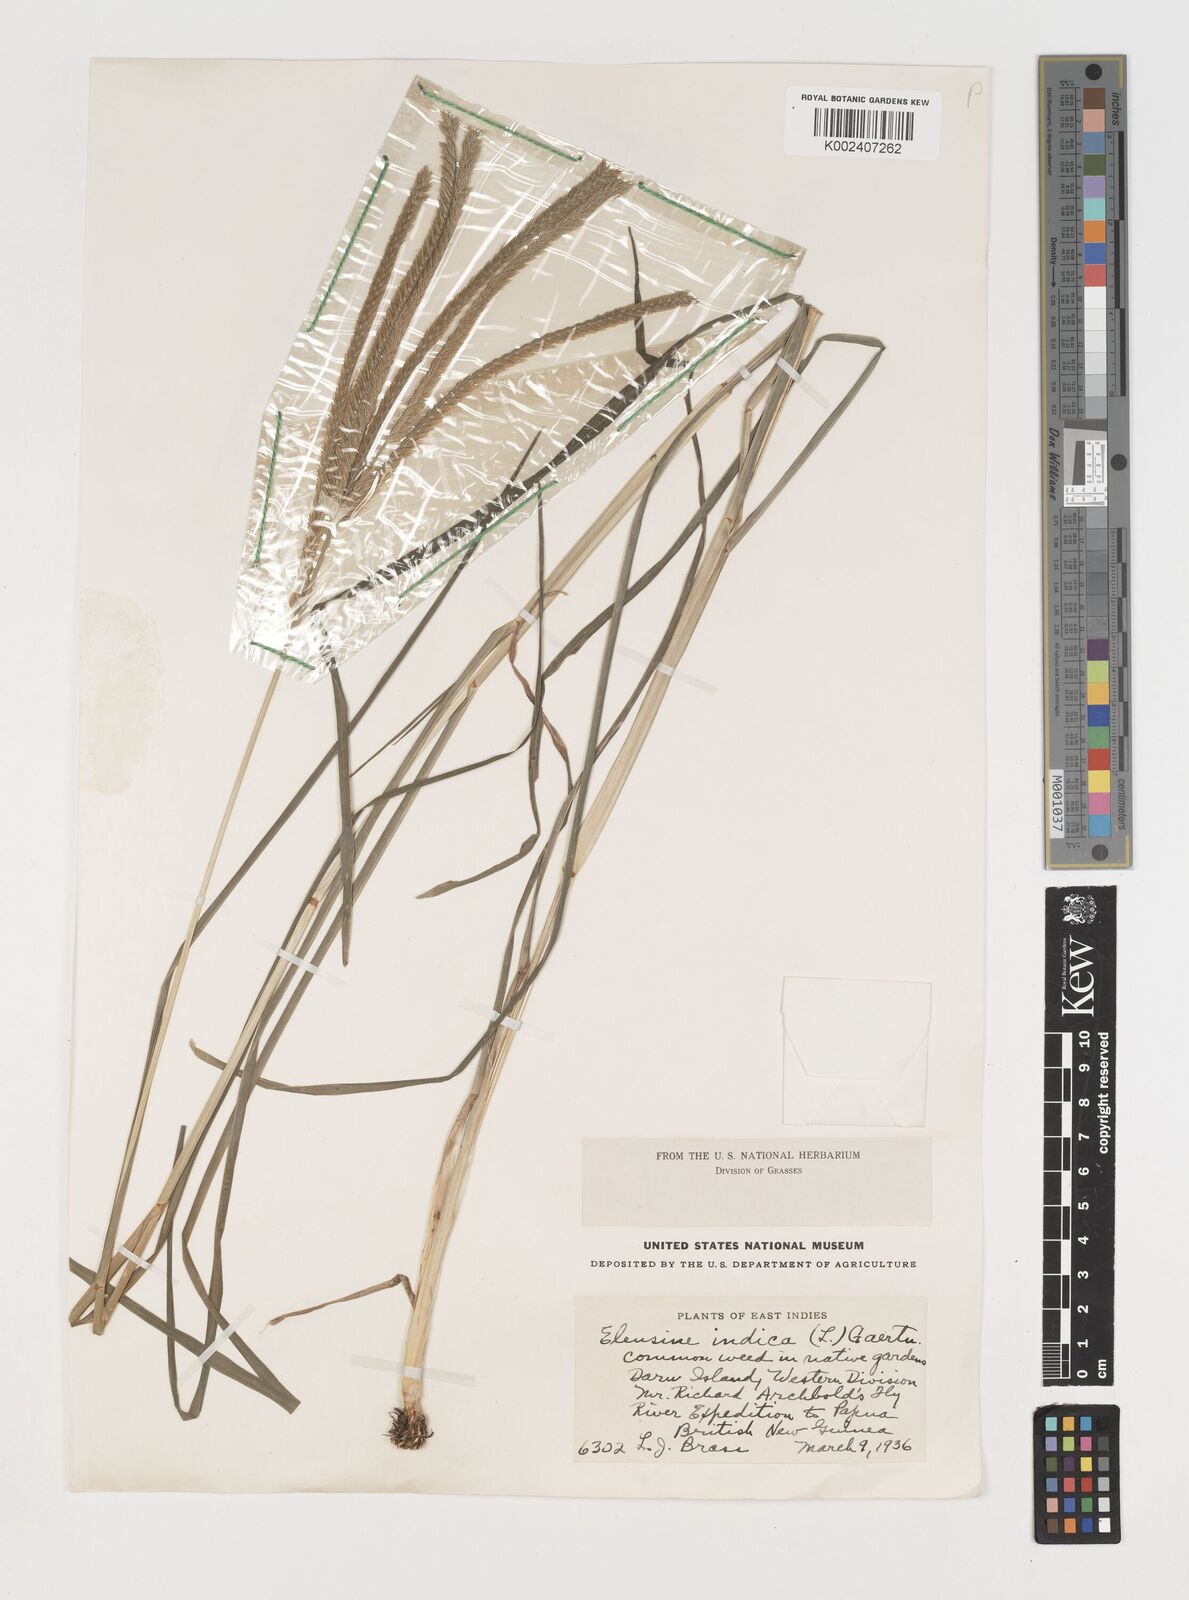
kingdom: Plantae
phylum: Tracheophyta
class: Liliopsida
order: Poales
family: Poaceae
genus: Eleusine
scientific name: Eleusine indica
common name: Yard-grass
